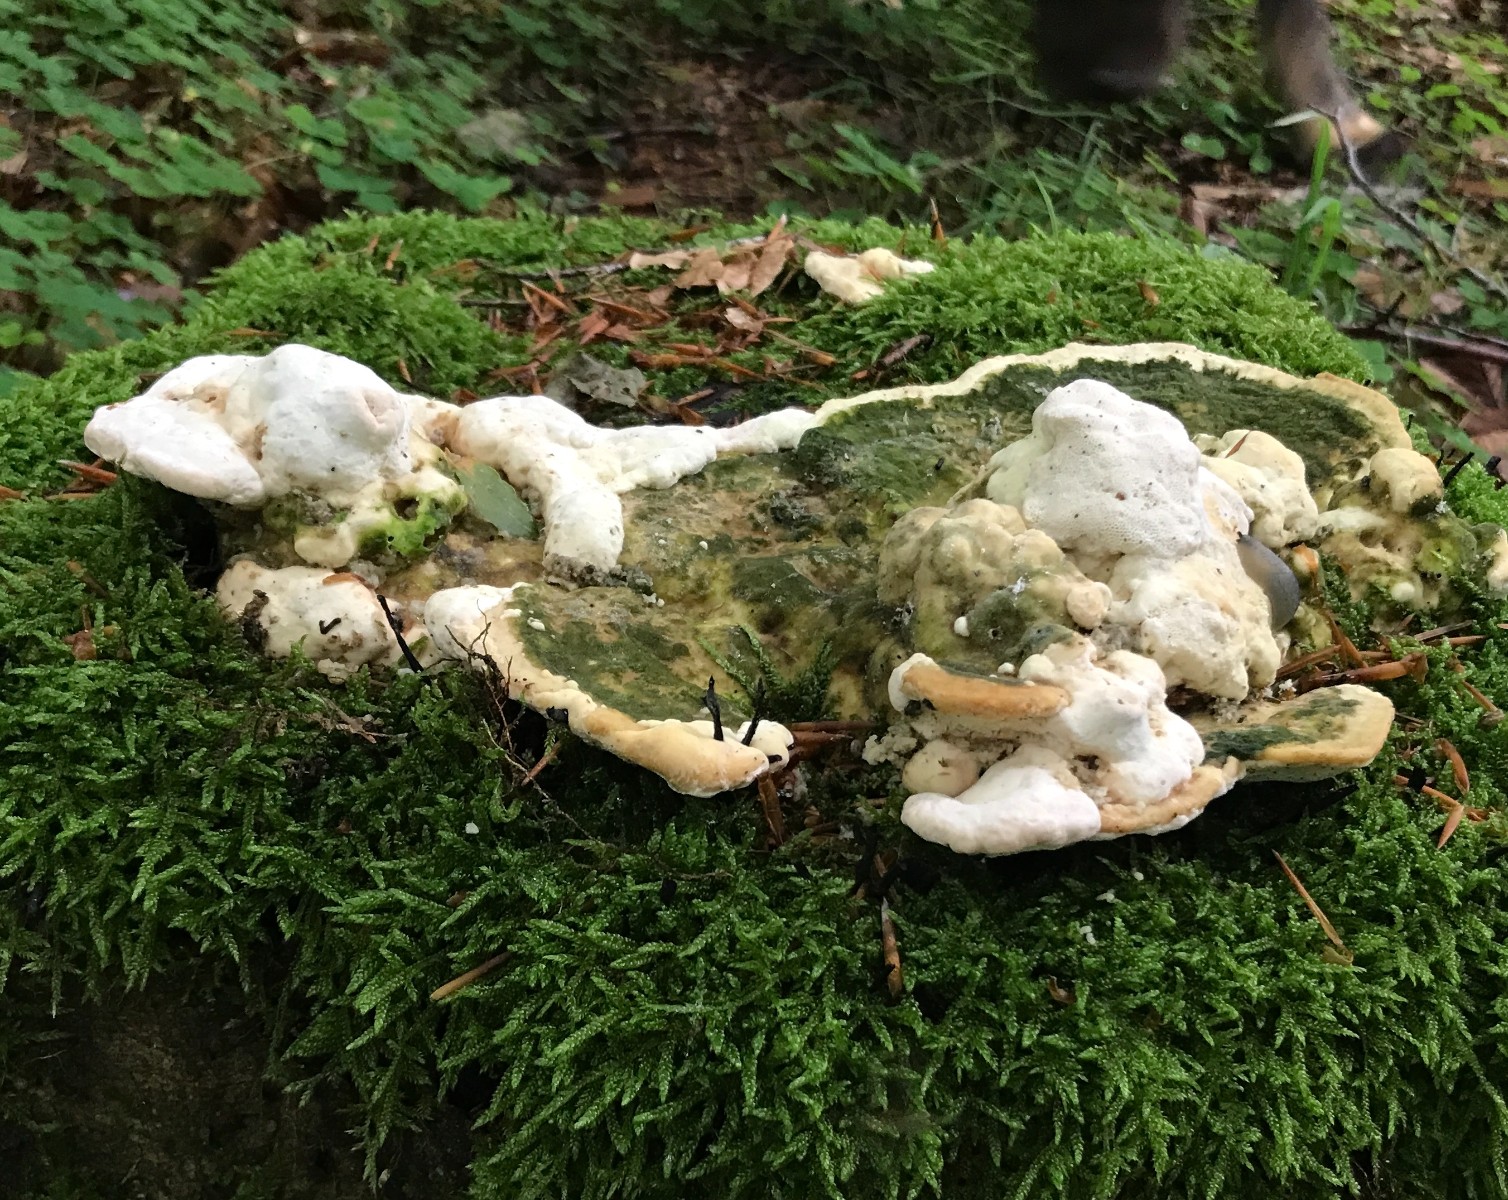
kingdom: Fungi
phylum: Basidiomycota
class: Agaricomycetes
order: Polyporales
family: Polyporaceae
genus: Trametes
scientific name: Trametes gibbosa
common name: puklet læderporesvamp
